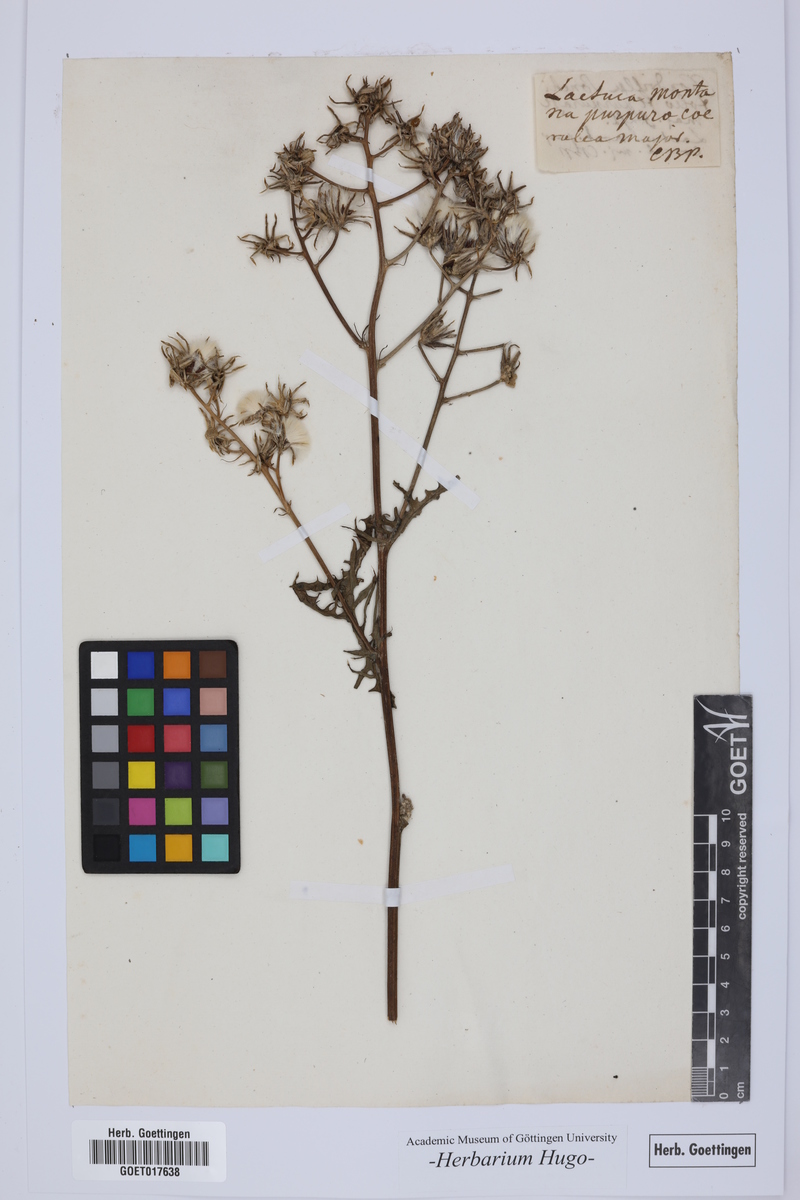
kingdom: Plantae
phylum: Tracheophyta
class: Magnoliopsida
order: Asterales
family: Asteraceae
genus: Prenanthes
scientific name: Prenanthes purpurea
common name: Purple lettuce
